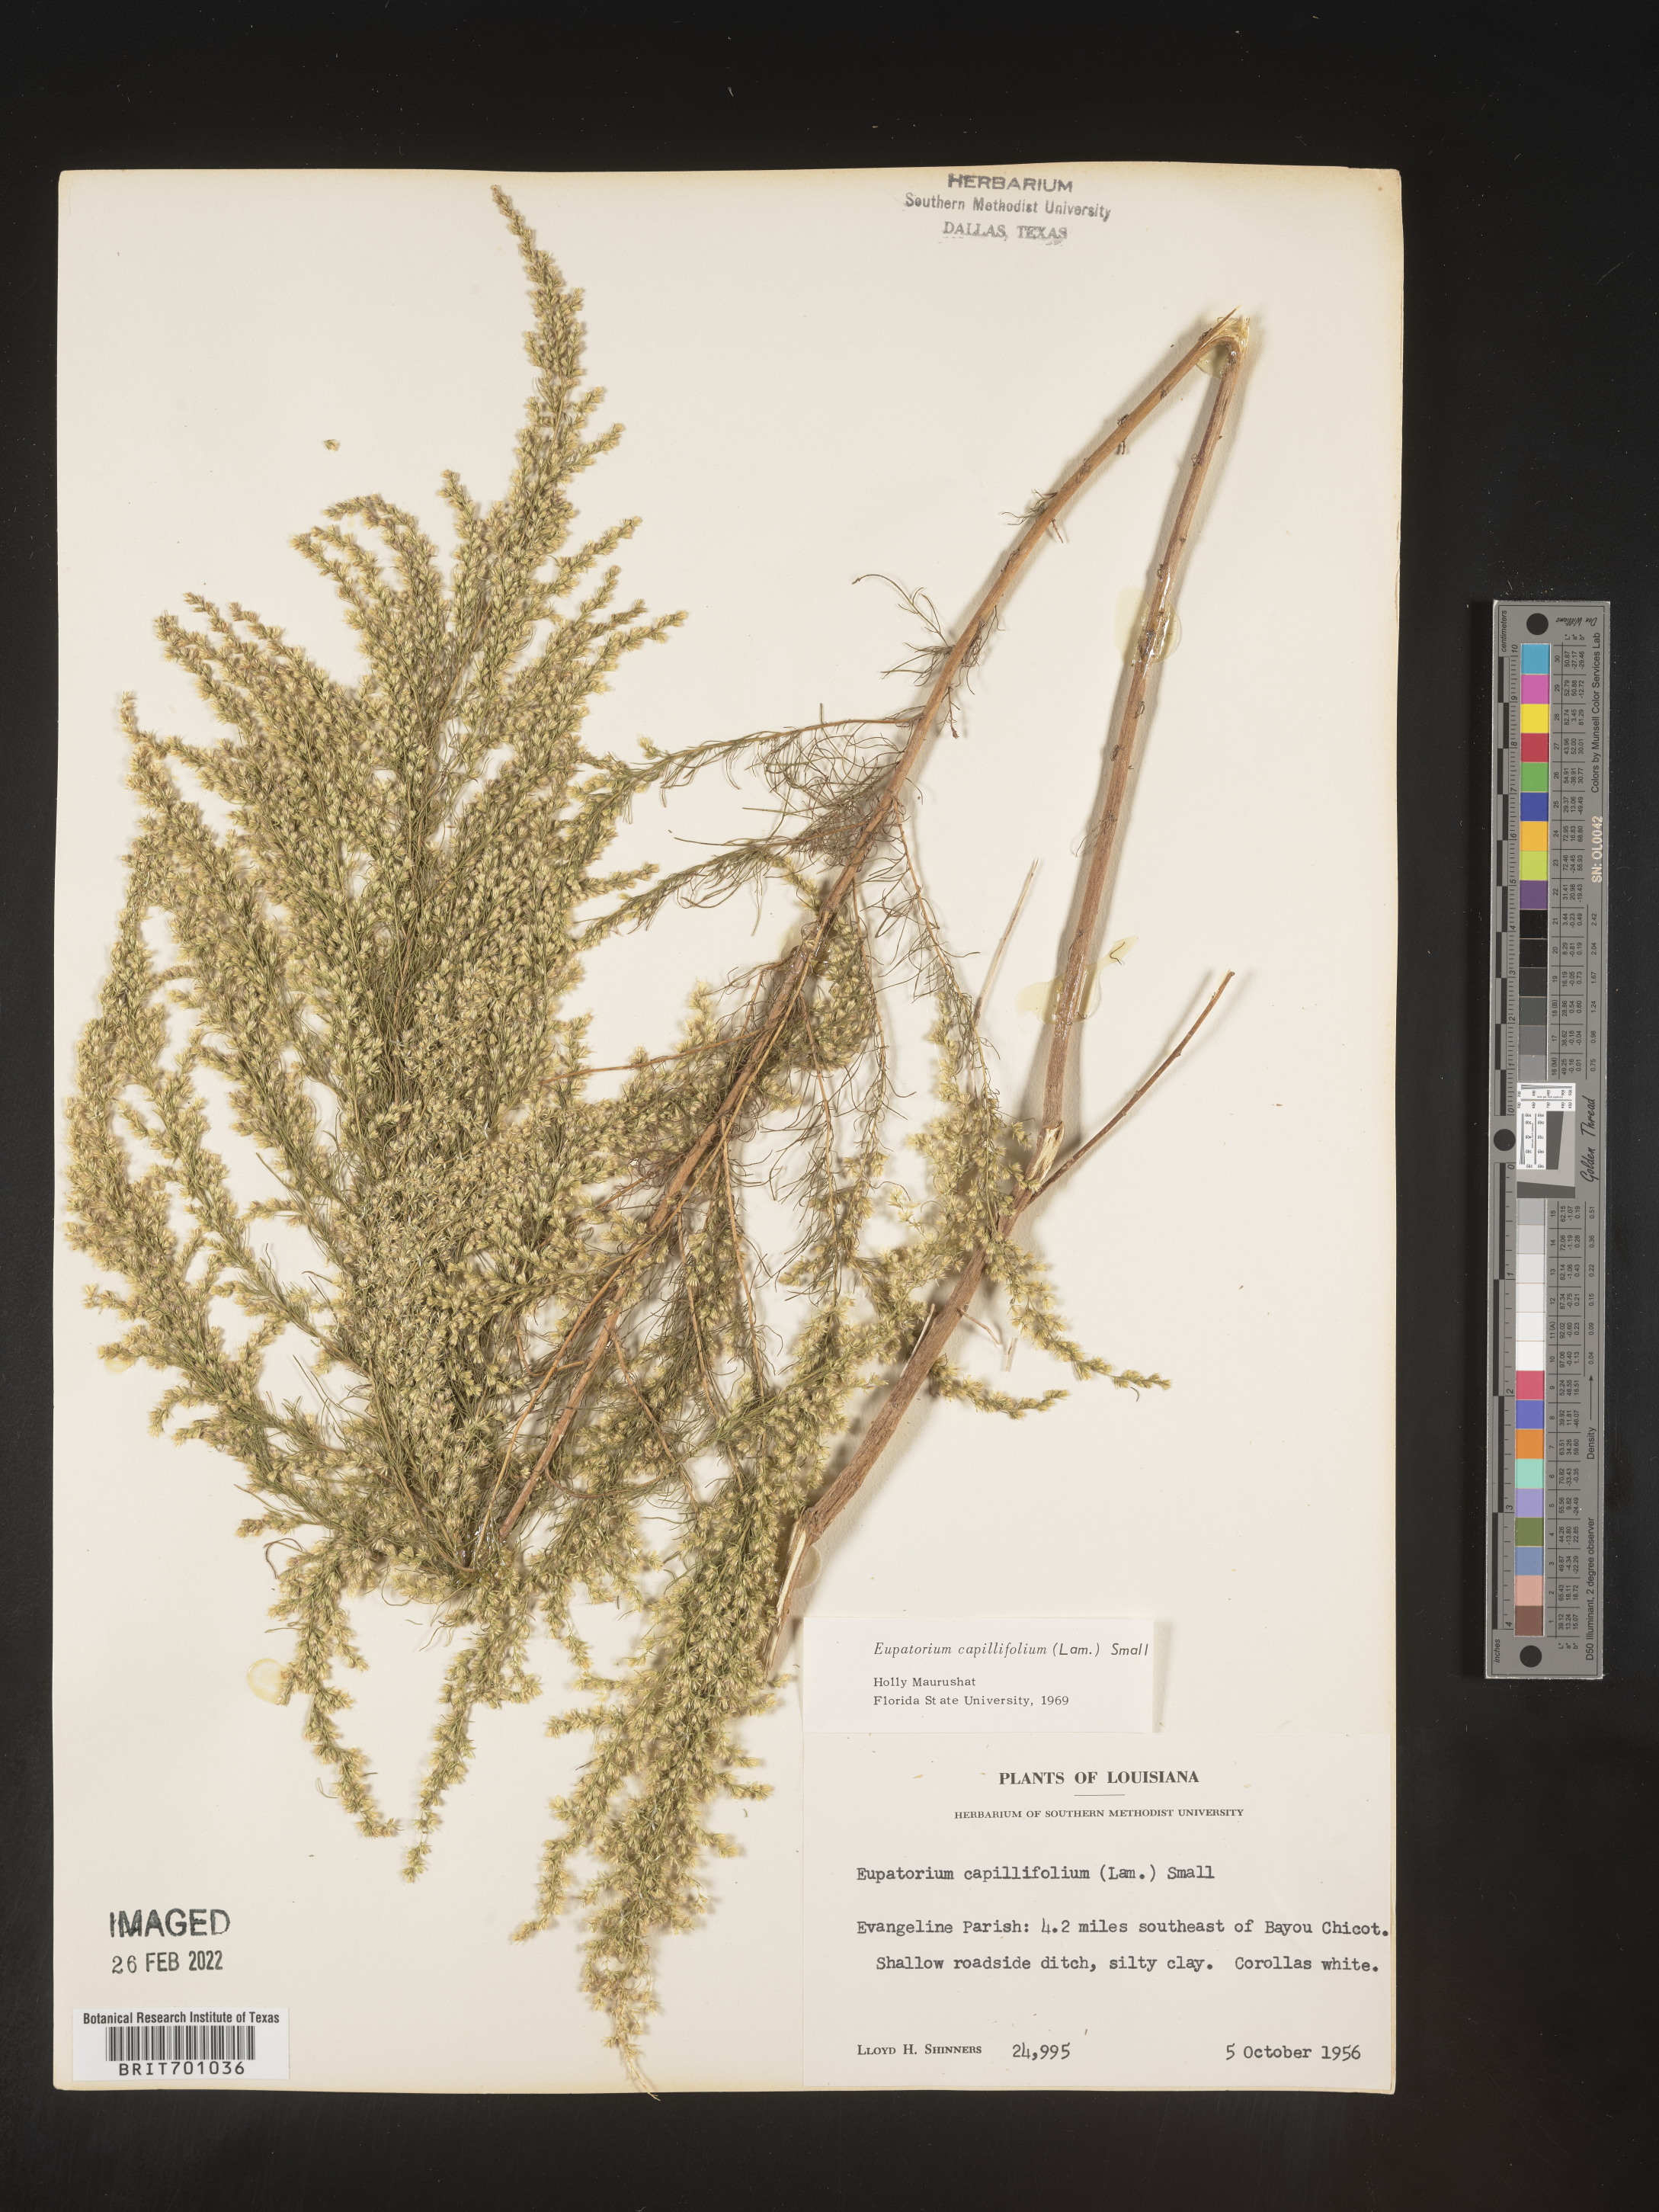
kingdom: Plantae
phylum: Tracheophyta
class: Magnoliopsida
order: Asterales
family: Asteraceae
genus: Eupatorium
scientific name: Eupatorium capillifolium
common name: Dog-fennel
